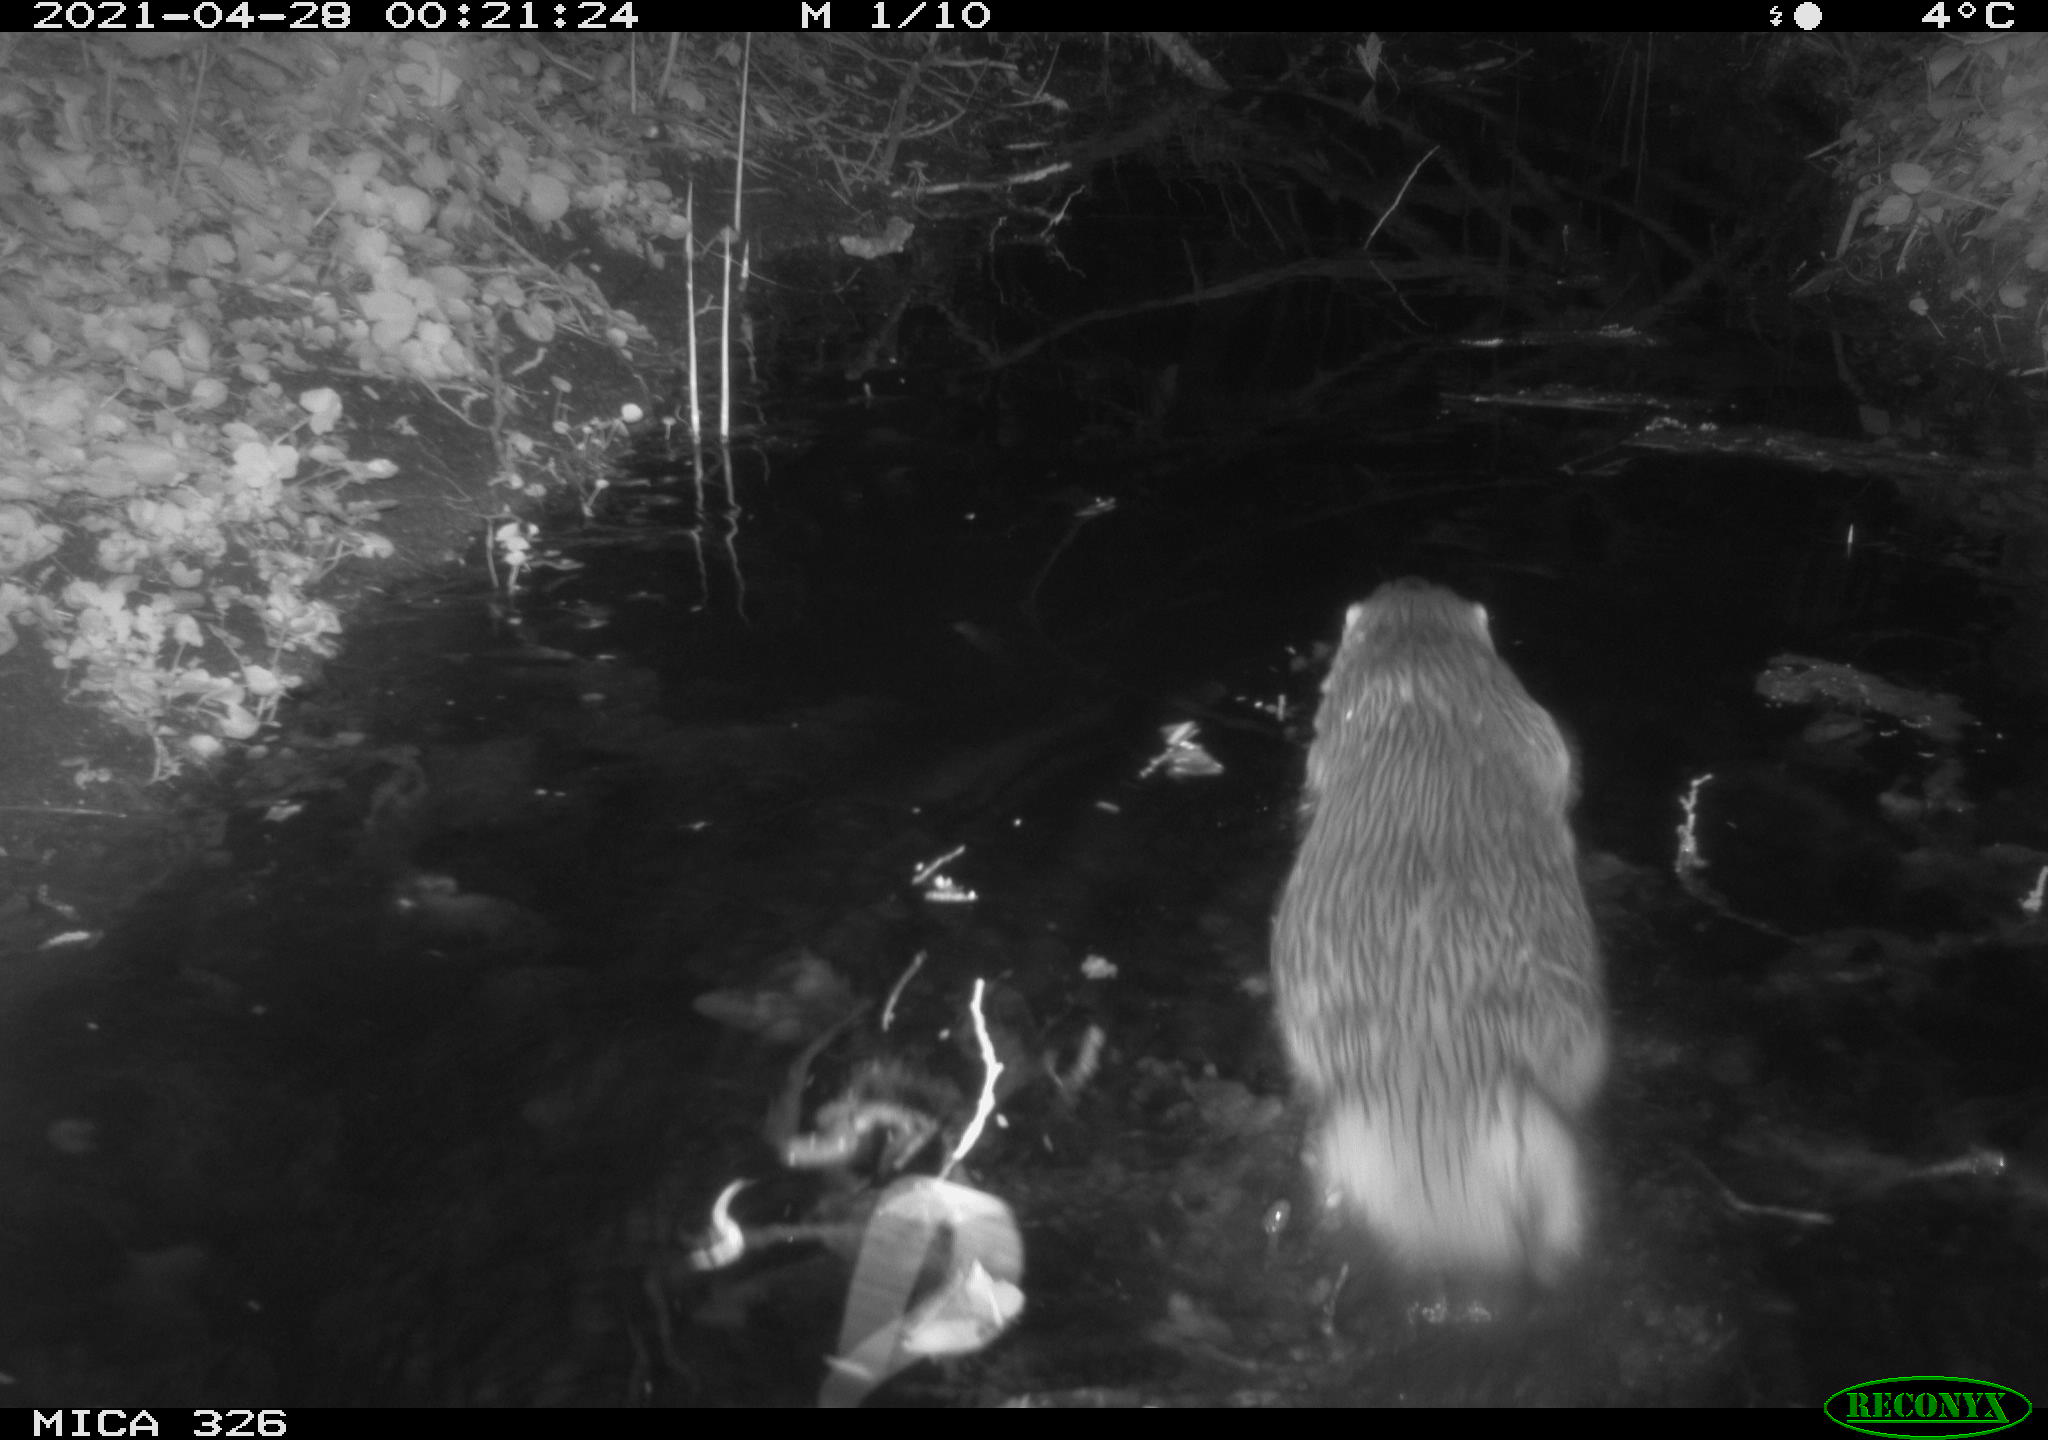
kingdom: Animalia
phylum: Chordata
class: Mammalia
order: Carnivora
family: Mustelidae
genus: Lutra
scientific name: Lutra lutra
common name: European otter
